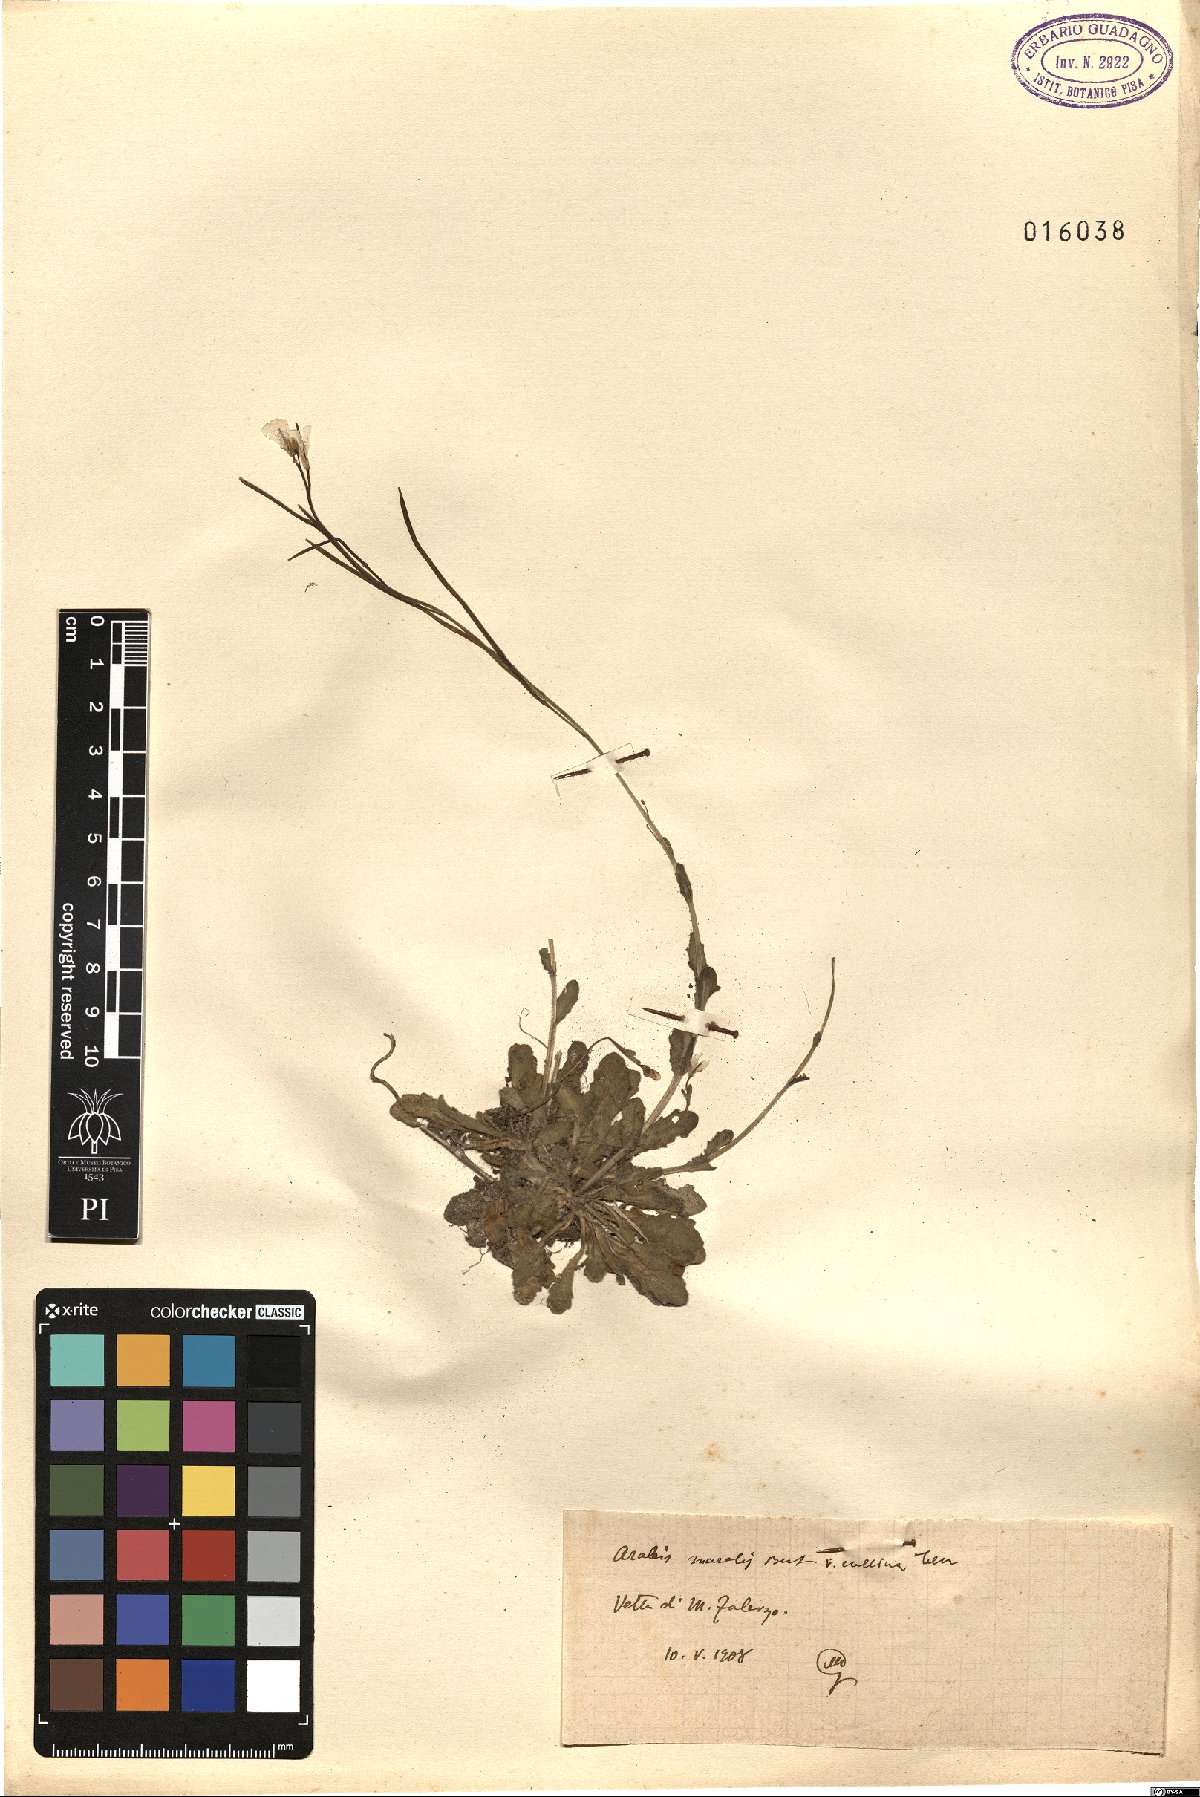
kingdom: Plantae
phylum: Tracheophyta
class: Magnoliopsida
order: Brassicales
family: Brassicaceae
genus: Arabis
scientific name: Arabis collina
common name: Rosy cress
